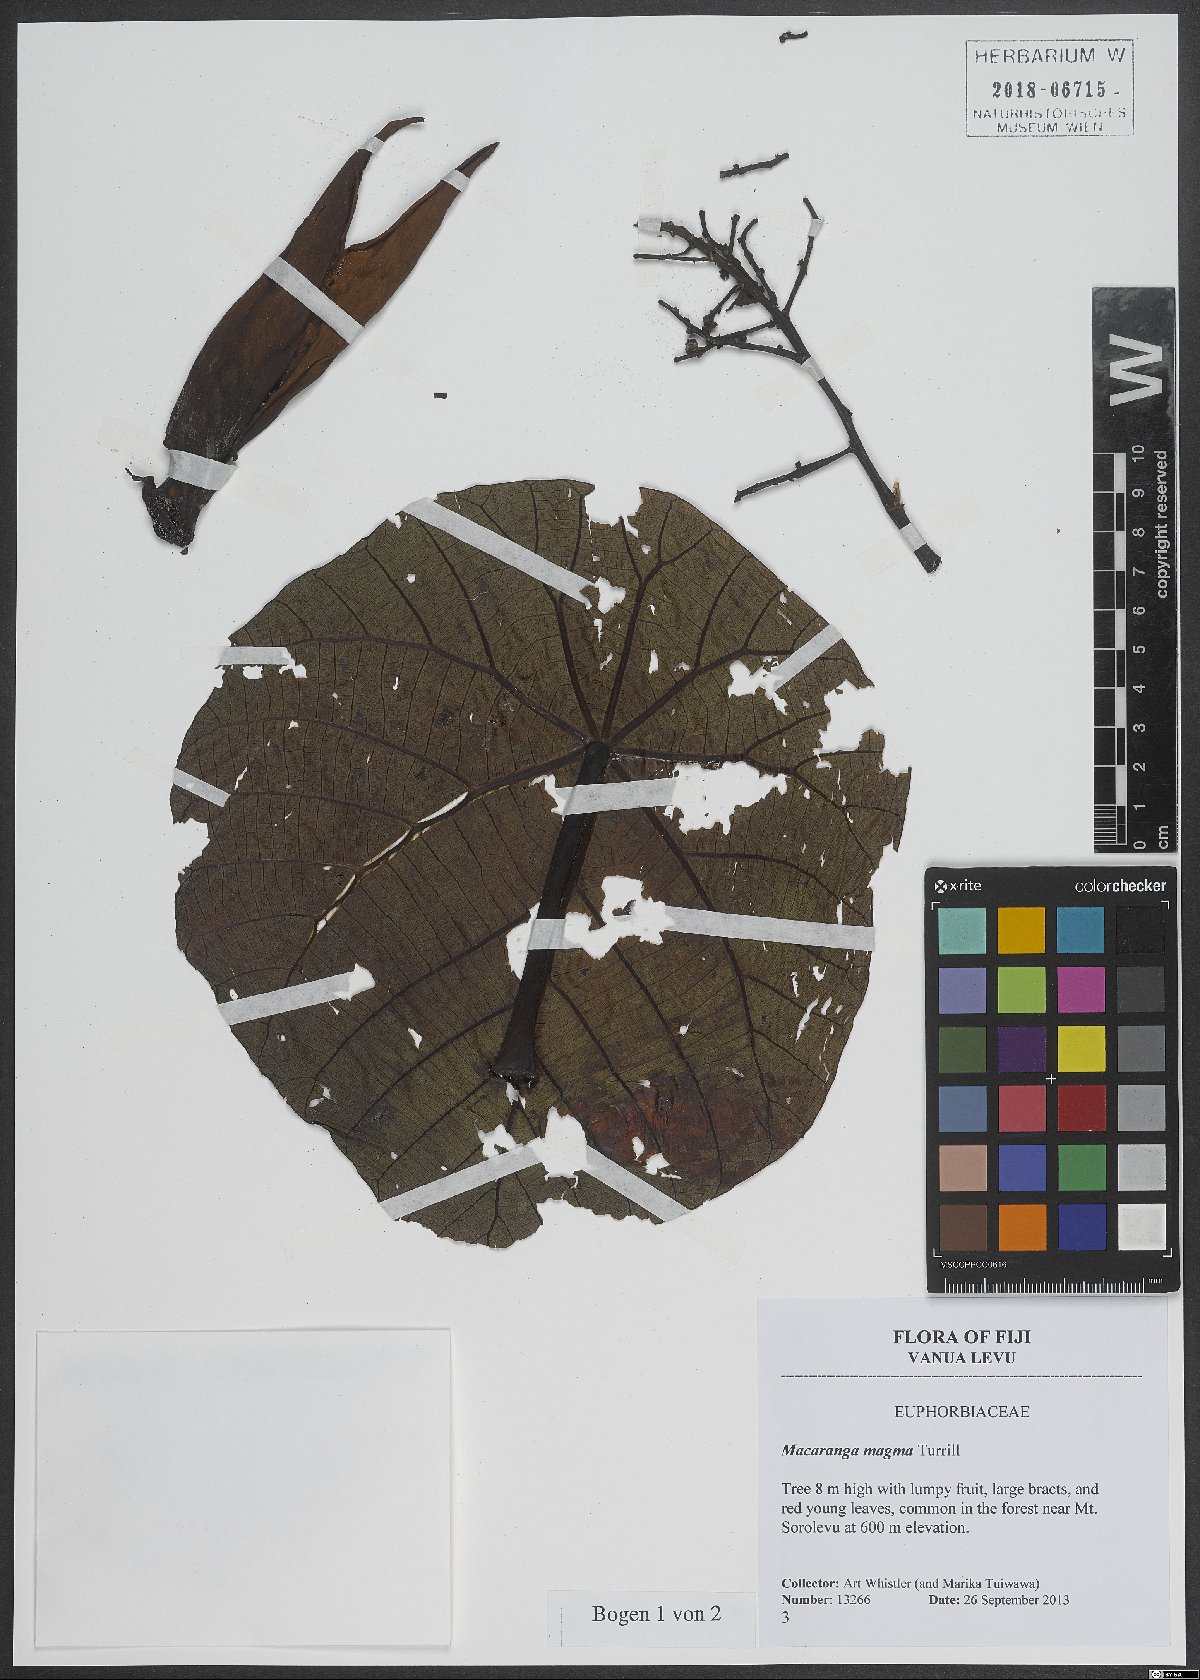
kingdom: Plantae
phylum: Tracheophyta
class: Magnoliopsida
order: Malpighiales
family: Euphorbiaceae
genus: Macaranga
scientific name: Macaranga magna
